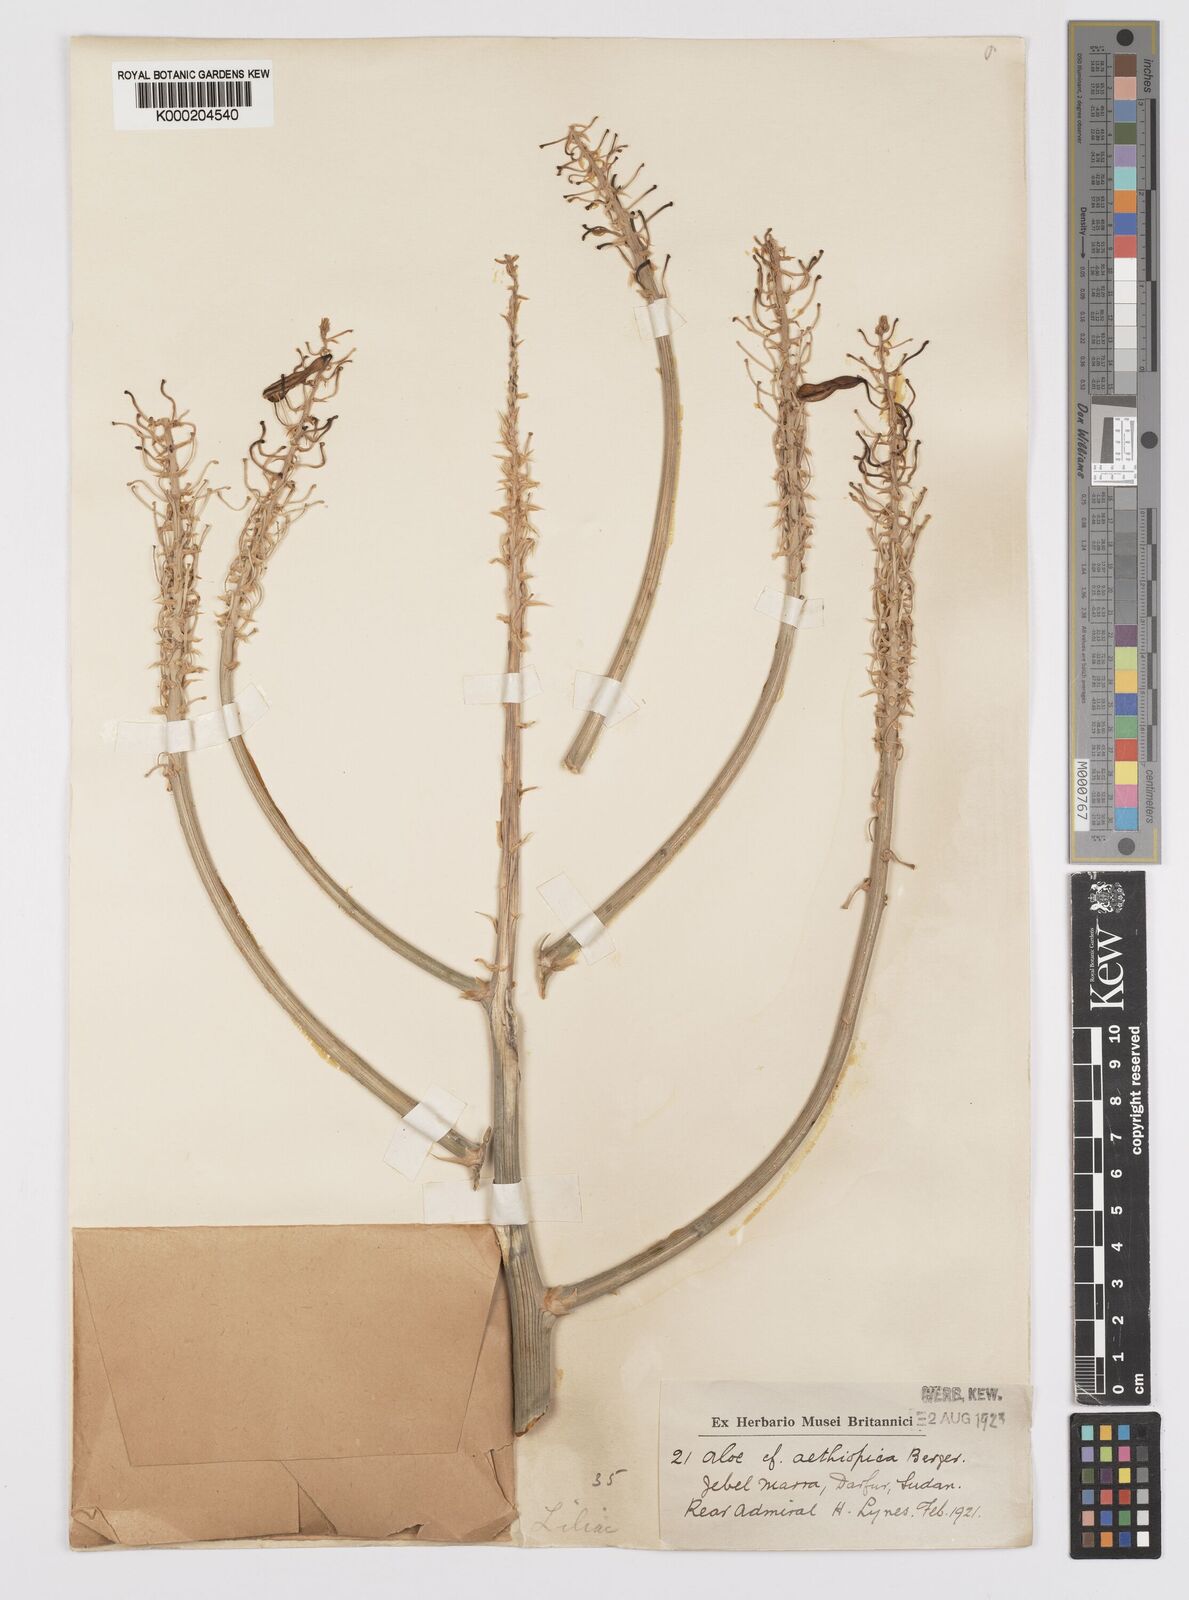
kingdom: Plantae
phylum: Tracheophyta
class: Liliopsida
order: Asparagales
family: Asphodelaceae
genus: Aloe
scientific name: Aloe elegans
